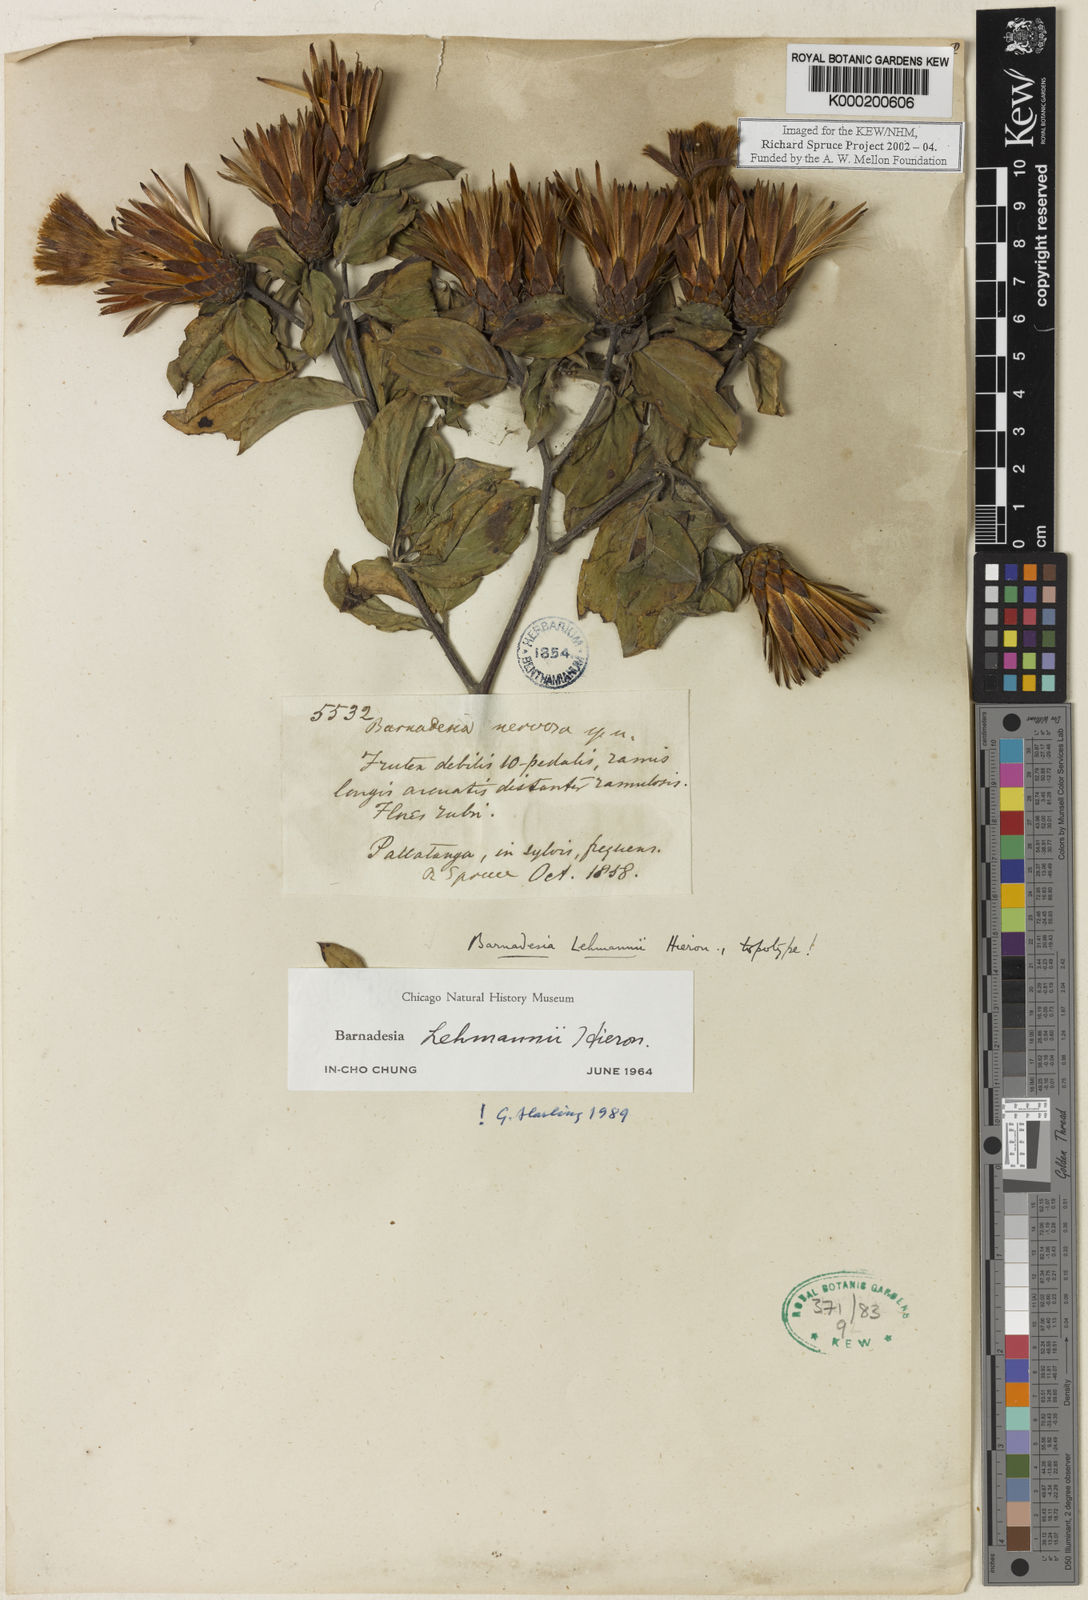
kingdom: Plantae
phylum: Tracheophyta
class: Magnoliopsida
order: Asterales
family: Asteraceae
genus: Barnadesia
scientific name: Barnadesia lehmannii
